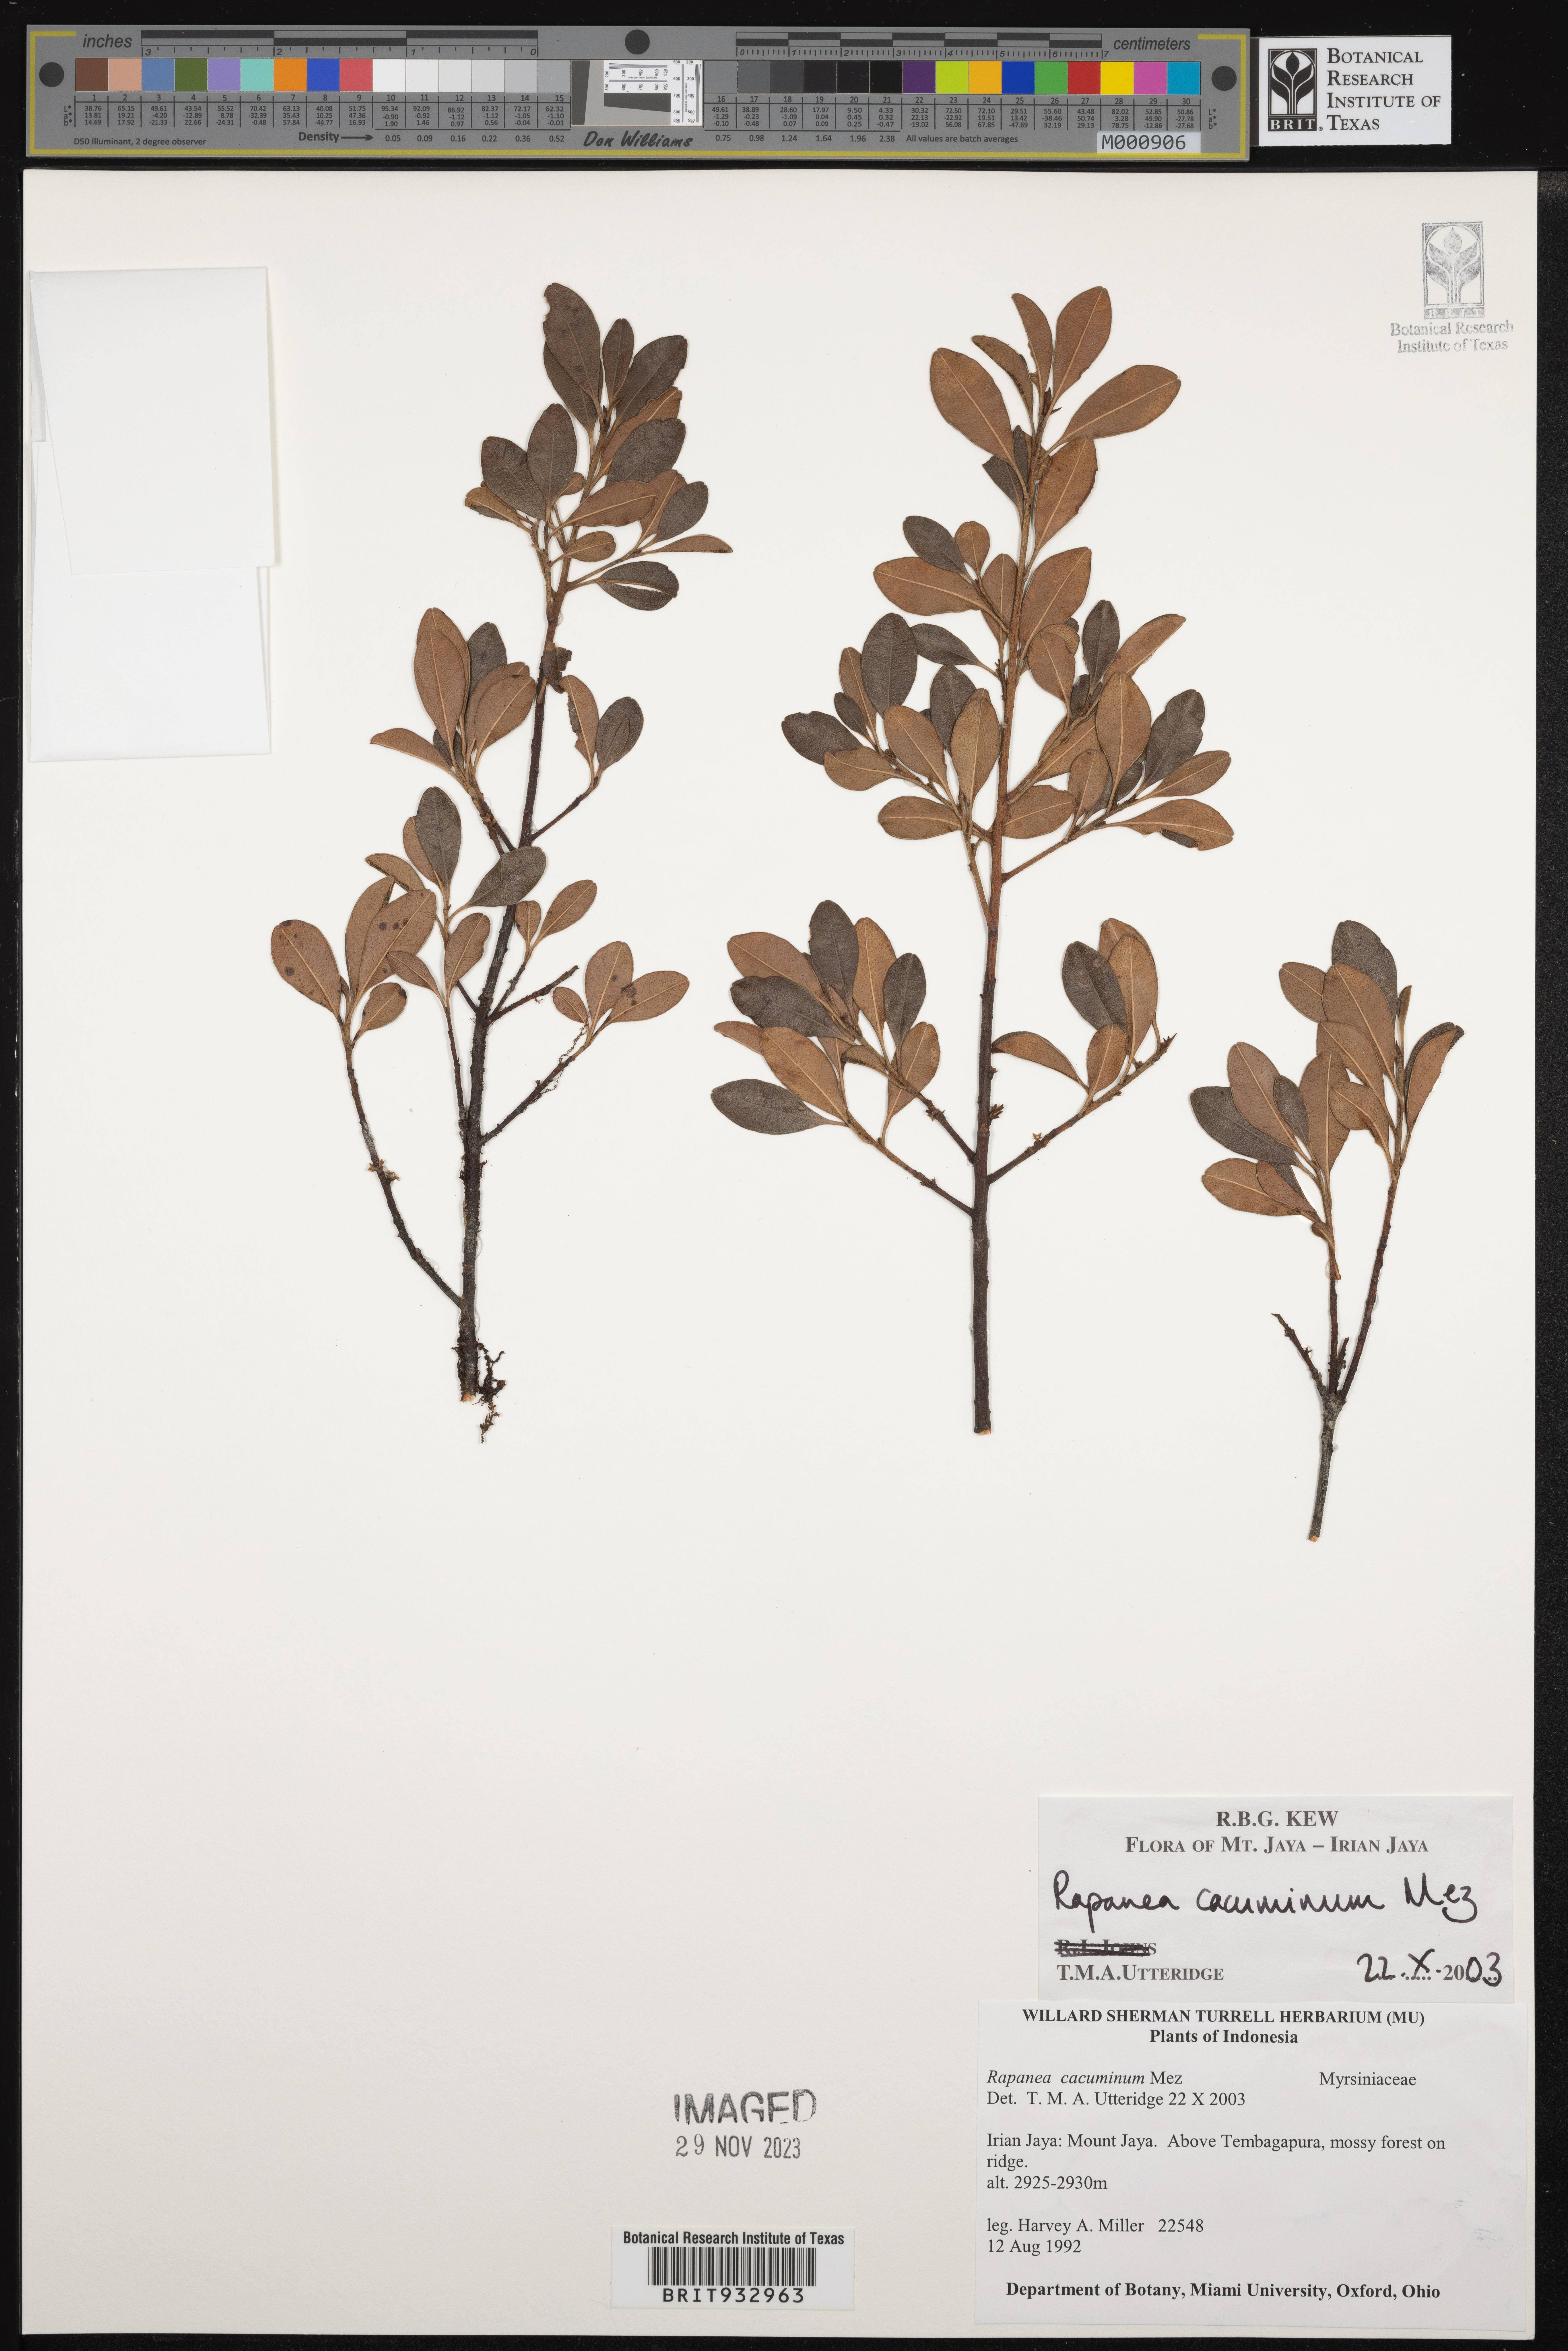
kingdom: Plantae
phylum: Tracheophyta
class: Magnoliopsida
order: Ericales
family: Primulaceae
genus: Myrsine
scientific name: Myrsine
